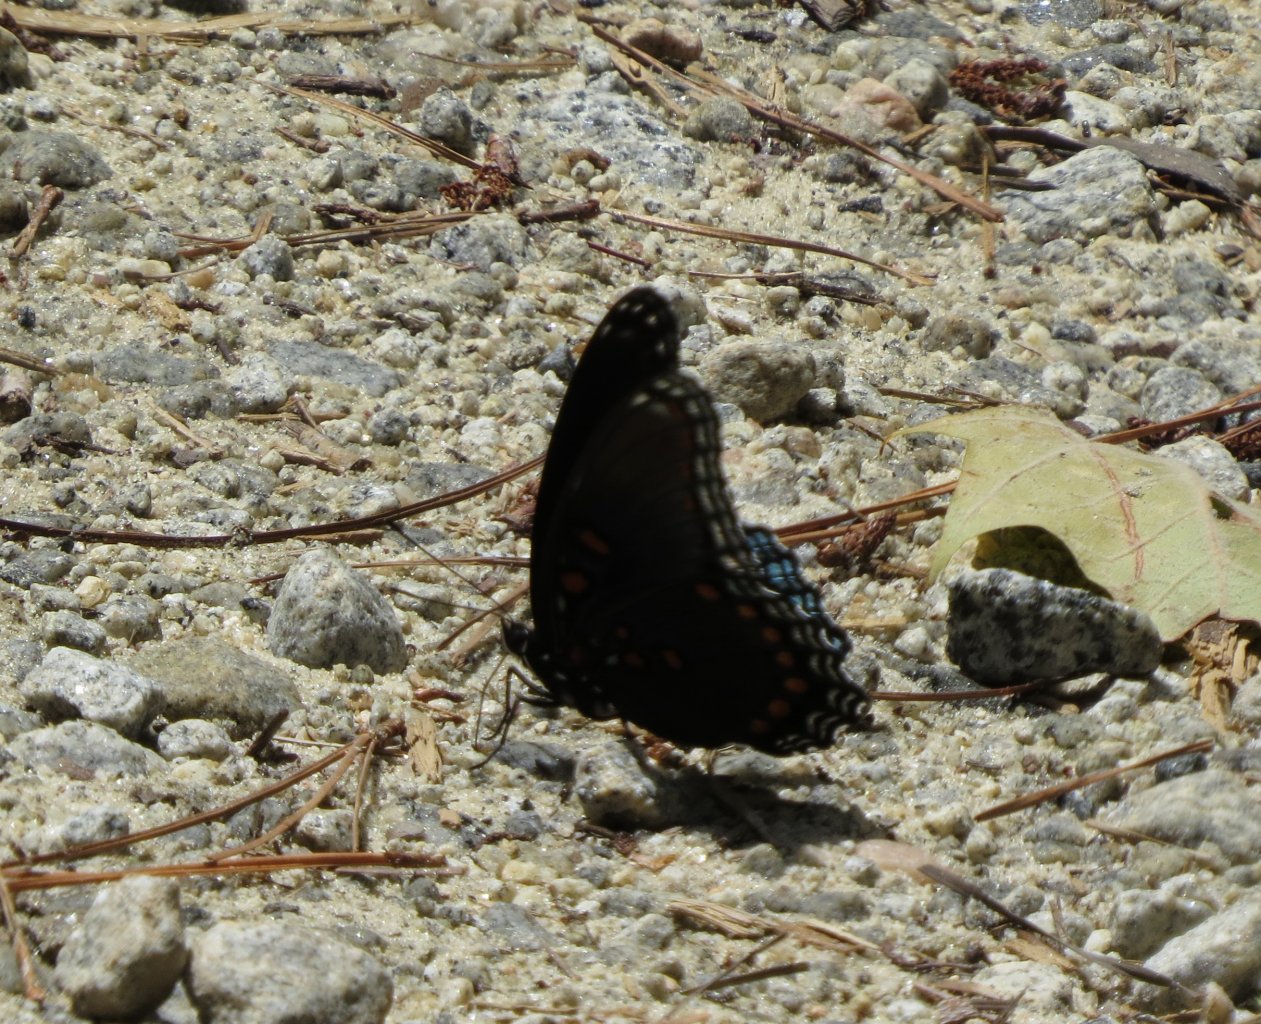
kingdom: Animalia
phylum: Arthropoda
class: Insecta
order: Lepidoptera
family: Nymphalidae
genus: Limenitis
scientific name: Limenitis astyanax
